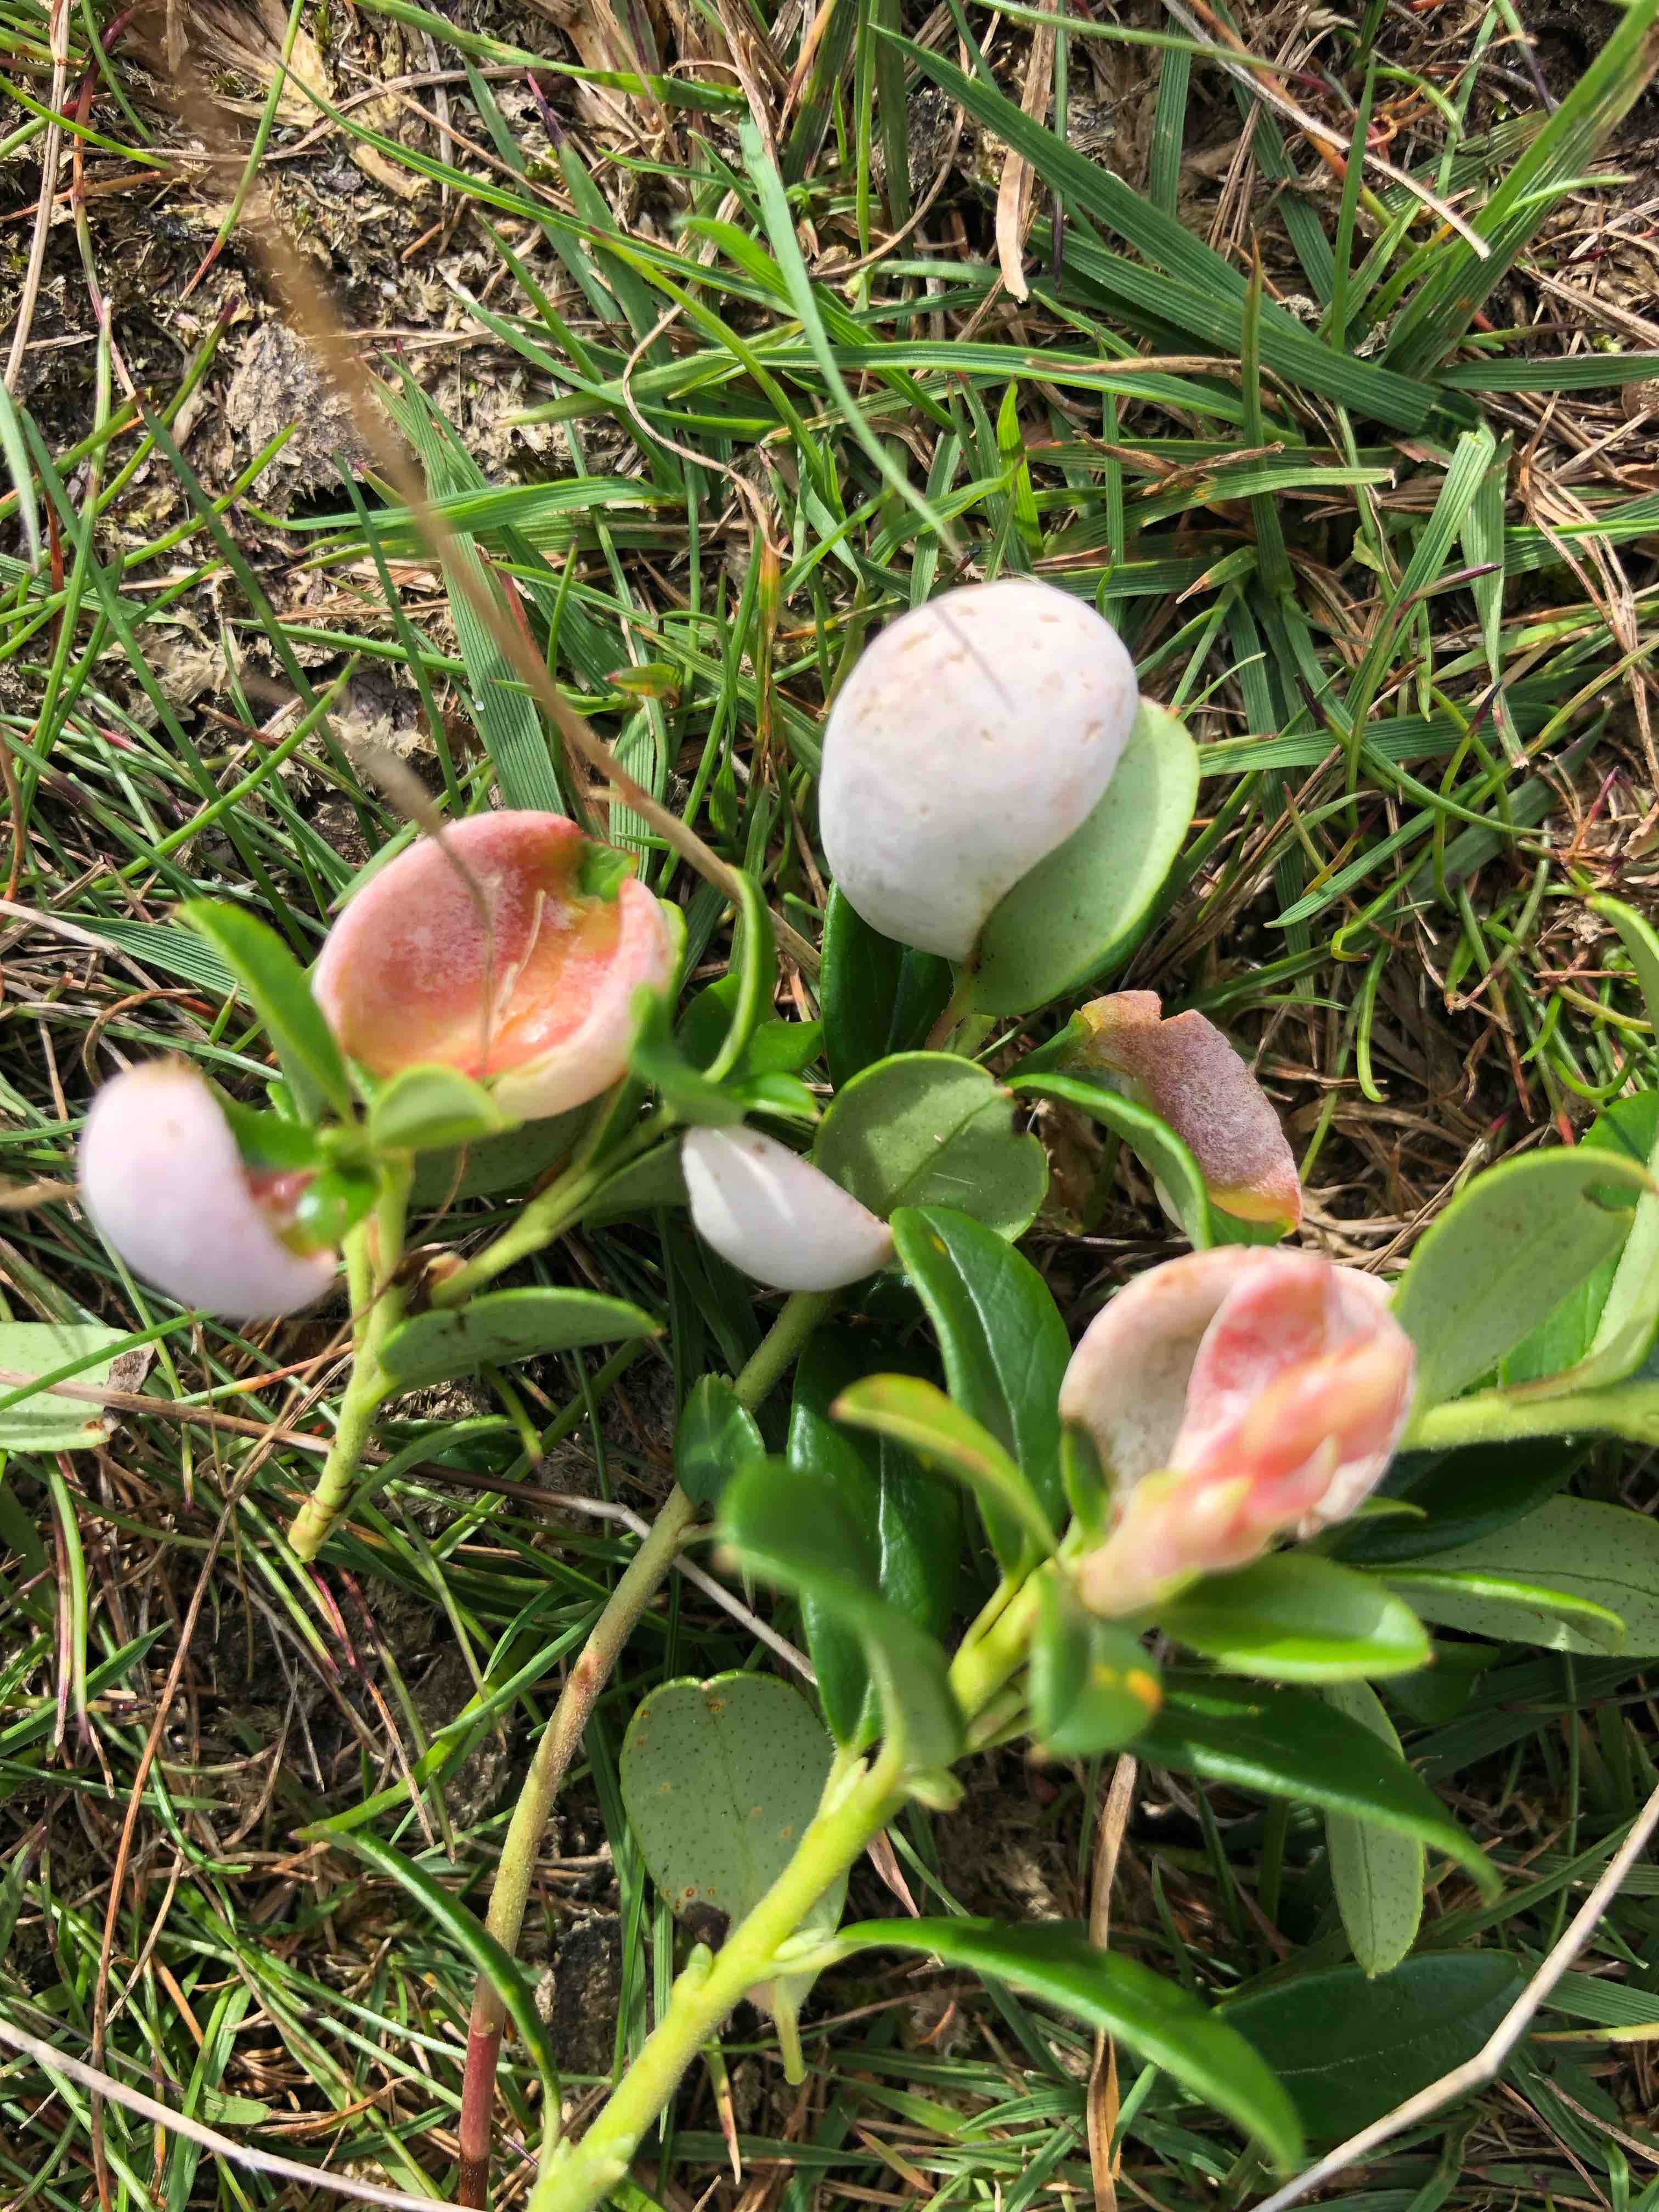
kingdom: Fungi
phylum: Basidiomycota
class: Exobasidiomycetes
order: Exobasidiales
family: Exobasidiaceae
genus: Exobasidium
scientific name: Exobasidium vaccinii
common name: tyttebærblad-bøllesvamp
